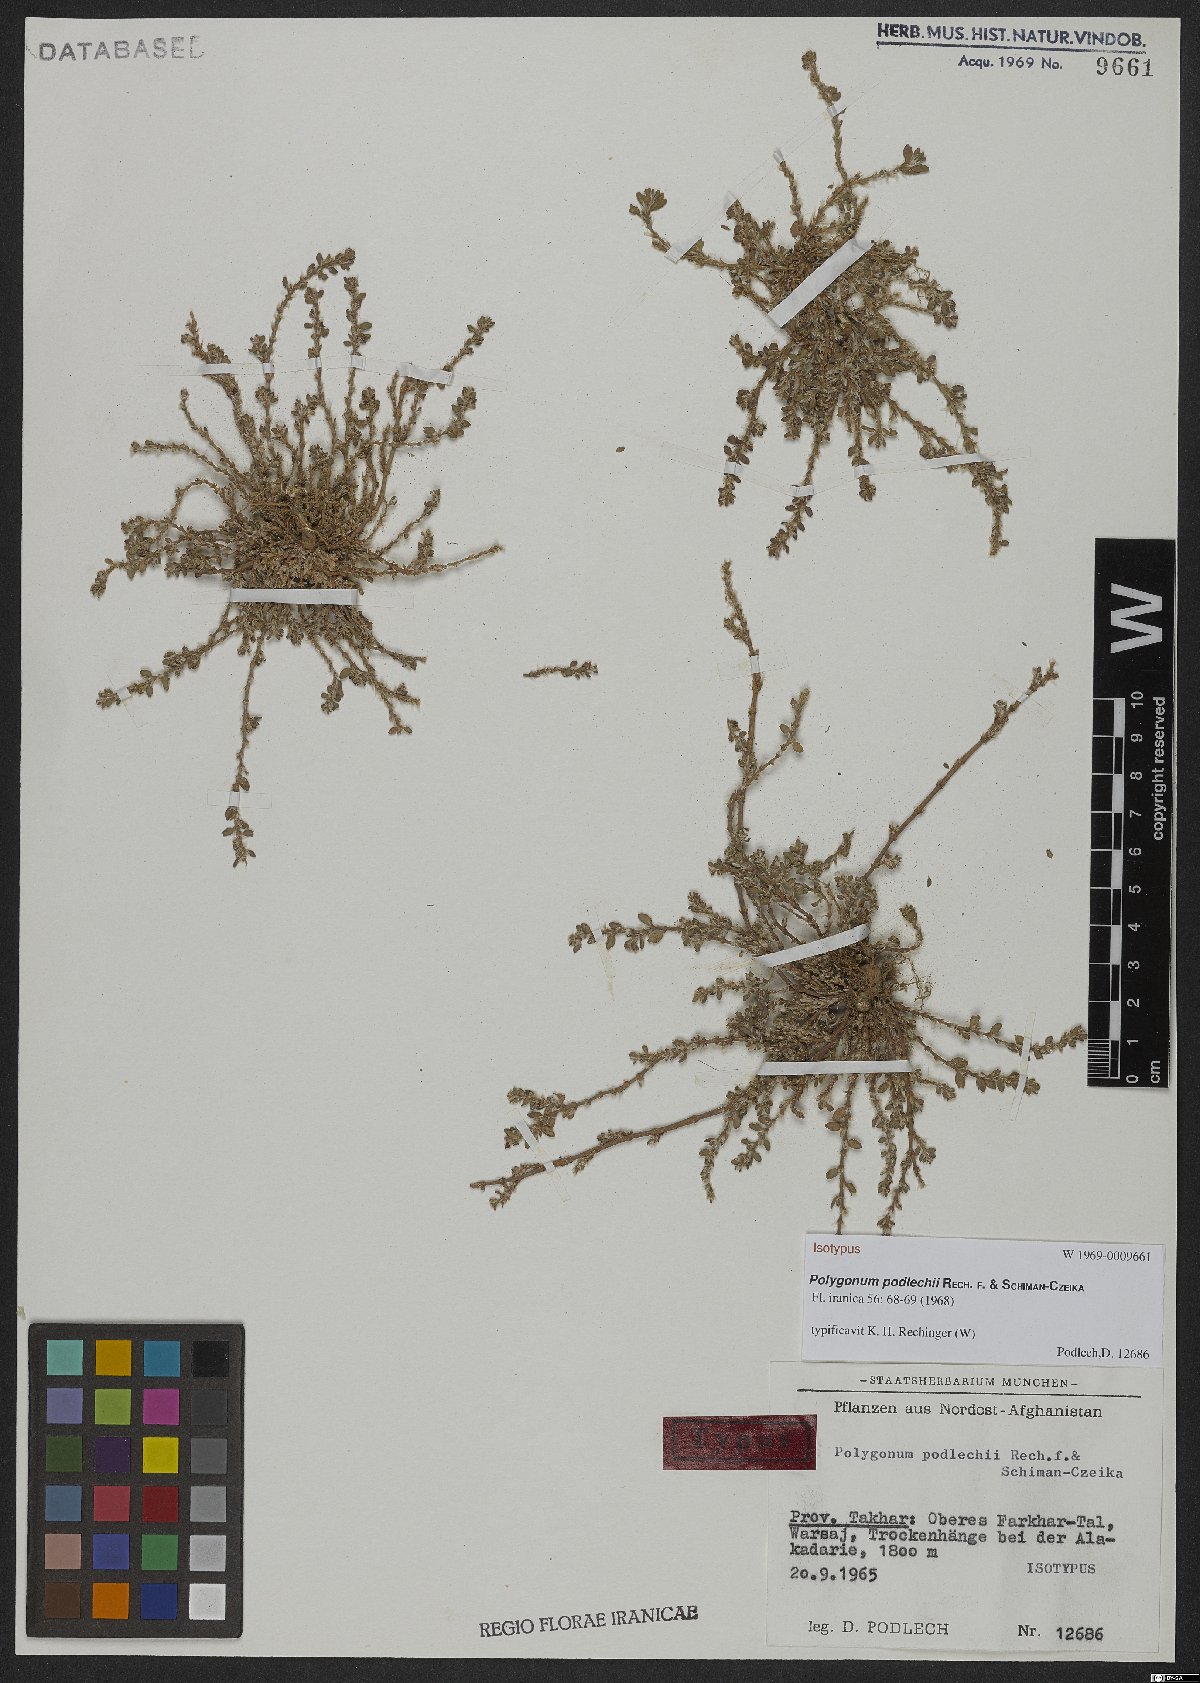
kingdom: Plantae
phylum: Tracheophyta
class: Magnoliopsida
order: Caryophyllales
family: Polygonaceae
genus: Polygonum
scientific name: Polygonum podlechii
